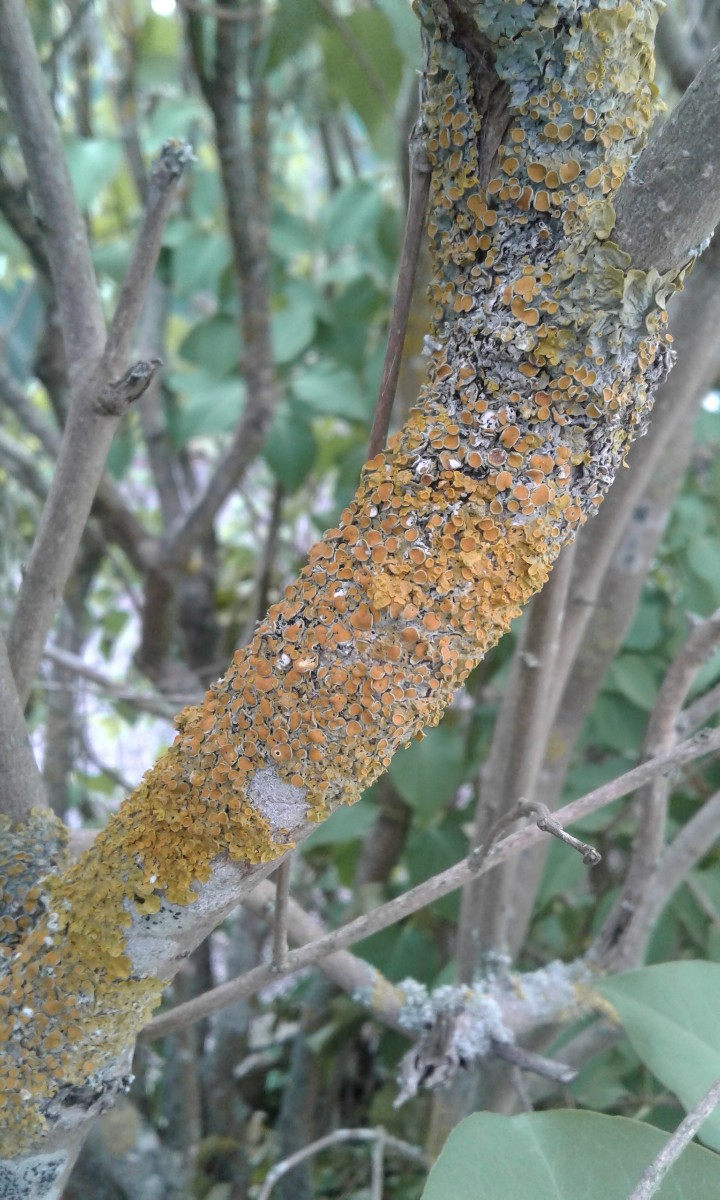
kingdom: Fungi
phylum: Ascomycota
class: Lecanoromycetes
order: Teloschistales
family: Teloschistaceae
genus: Xanthoria
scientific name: Xanthoria parietina
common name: almindelig væggelav
